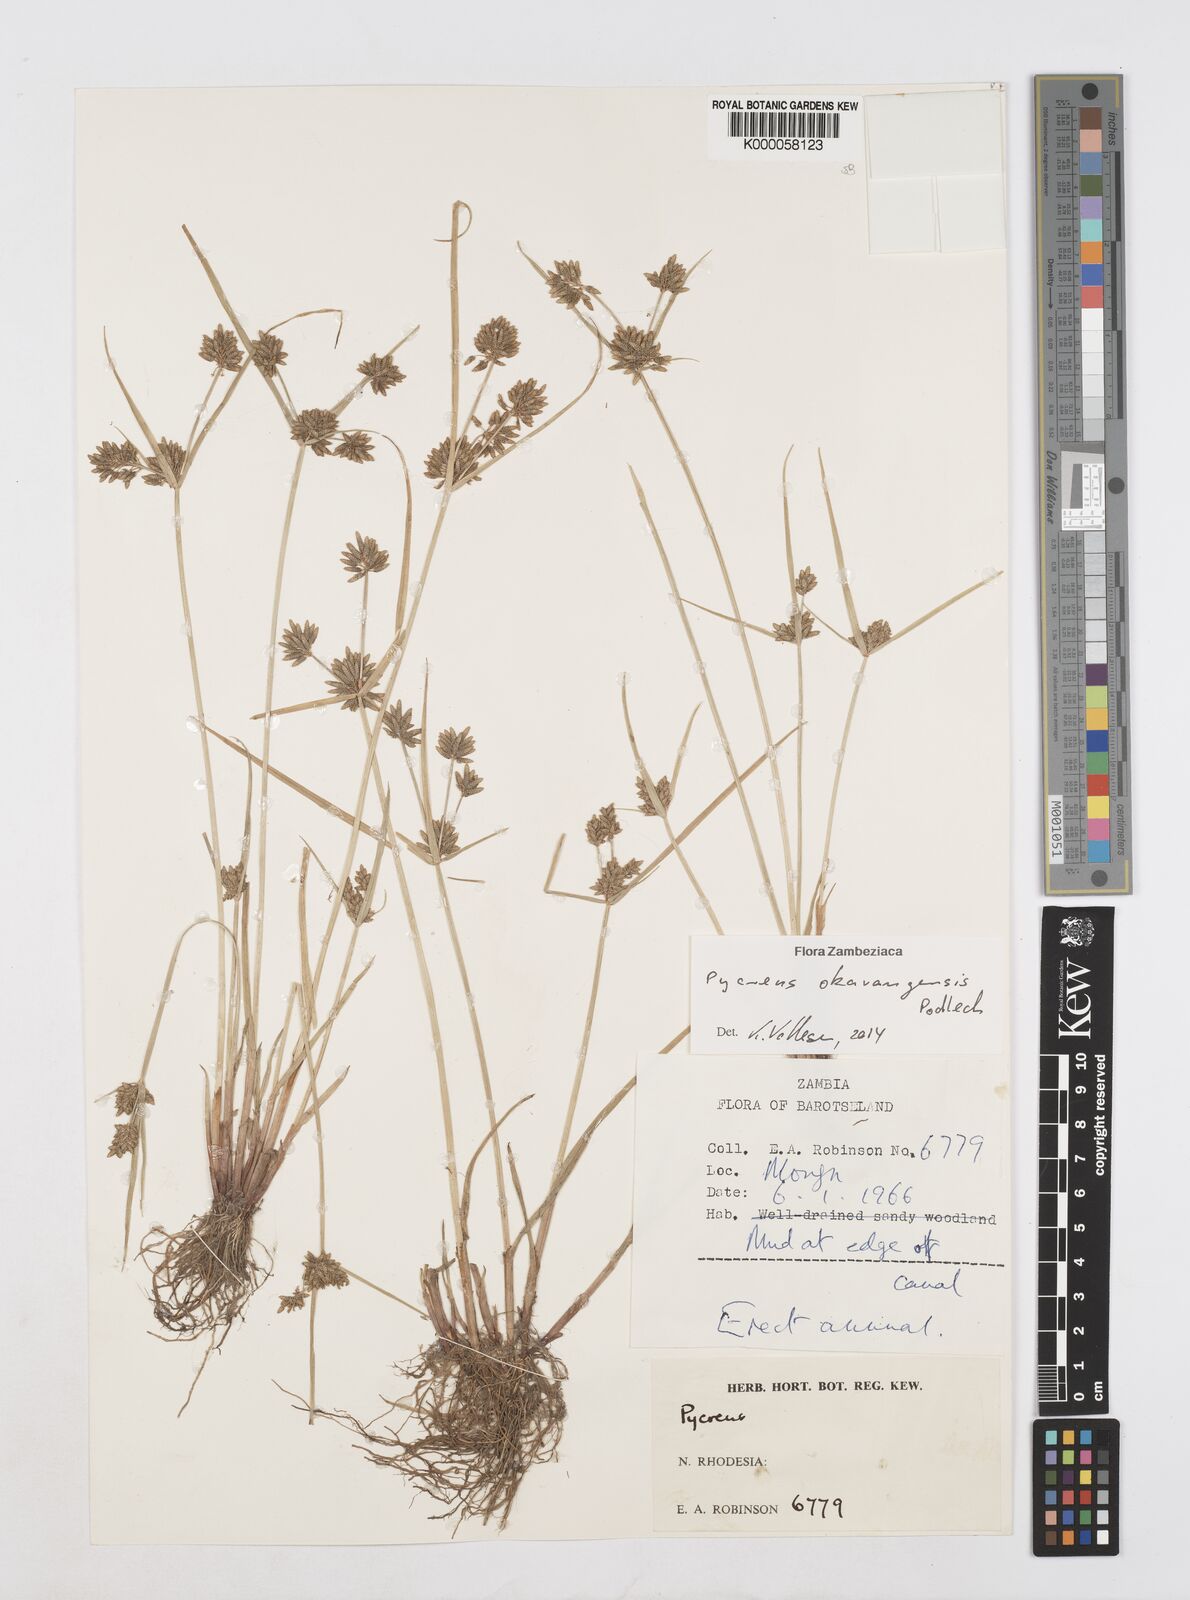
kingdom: Plantae
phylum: Tracheophyta
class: Liliopsida
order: Poales
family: Cyperaceae
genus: Cyperus
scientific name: Cyperus okavangensis
